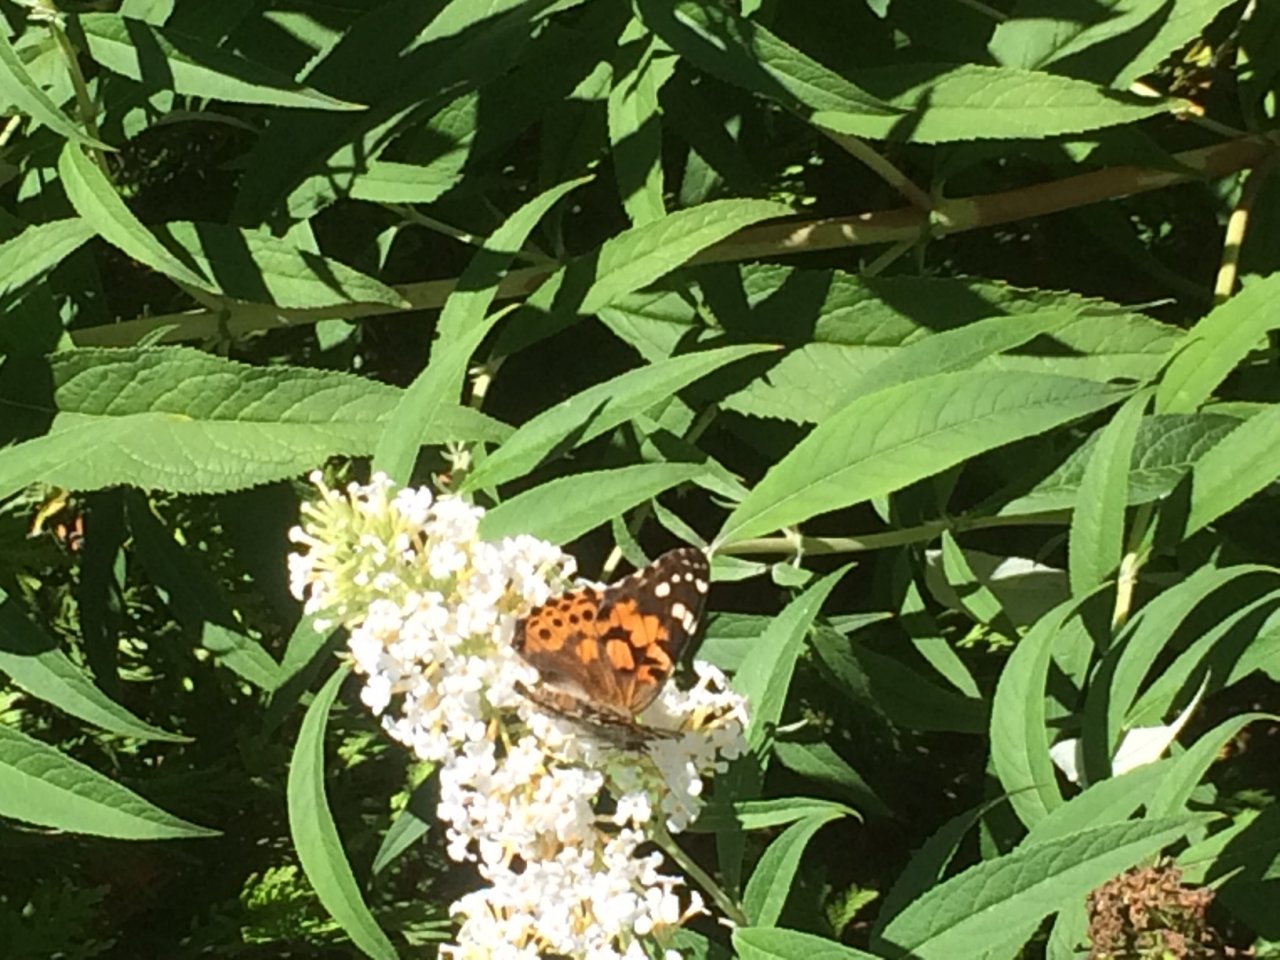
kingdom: Animalia
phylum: Arthropoda
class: Insecta
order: Lepidoptera
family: Nymphalidae
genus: Vanessa
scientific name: Vanessa cardui
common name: Painted Lady
